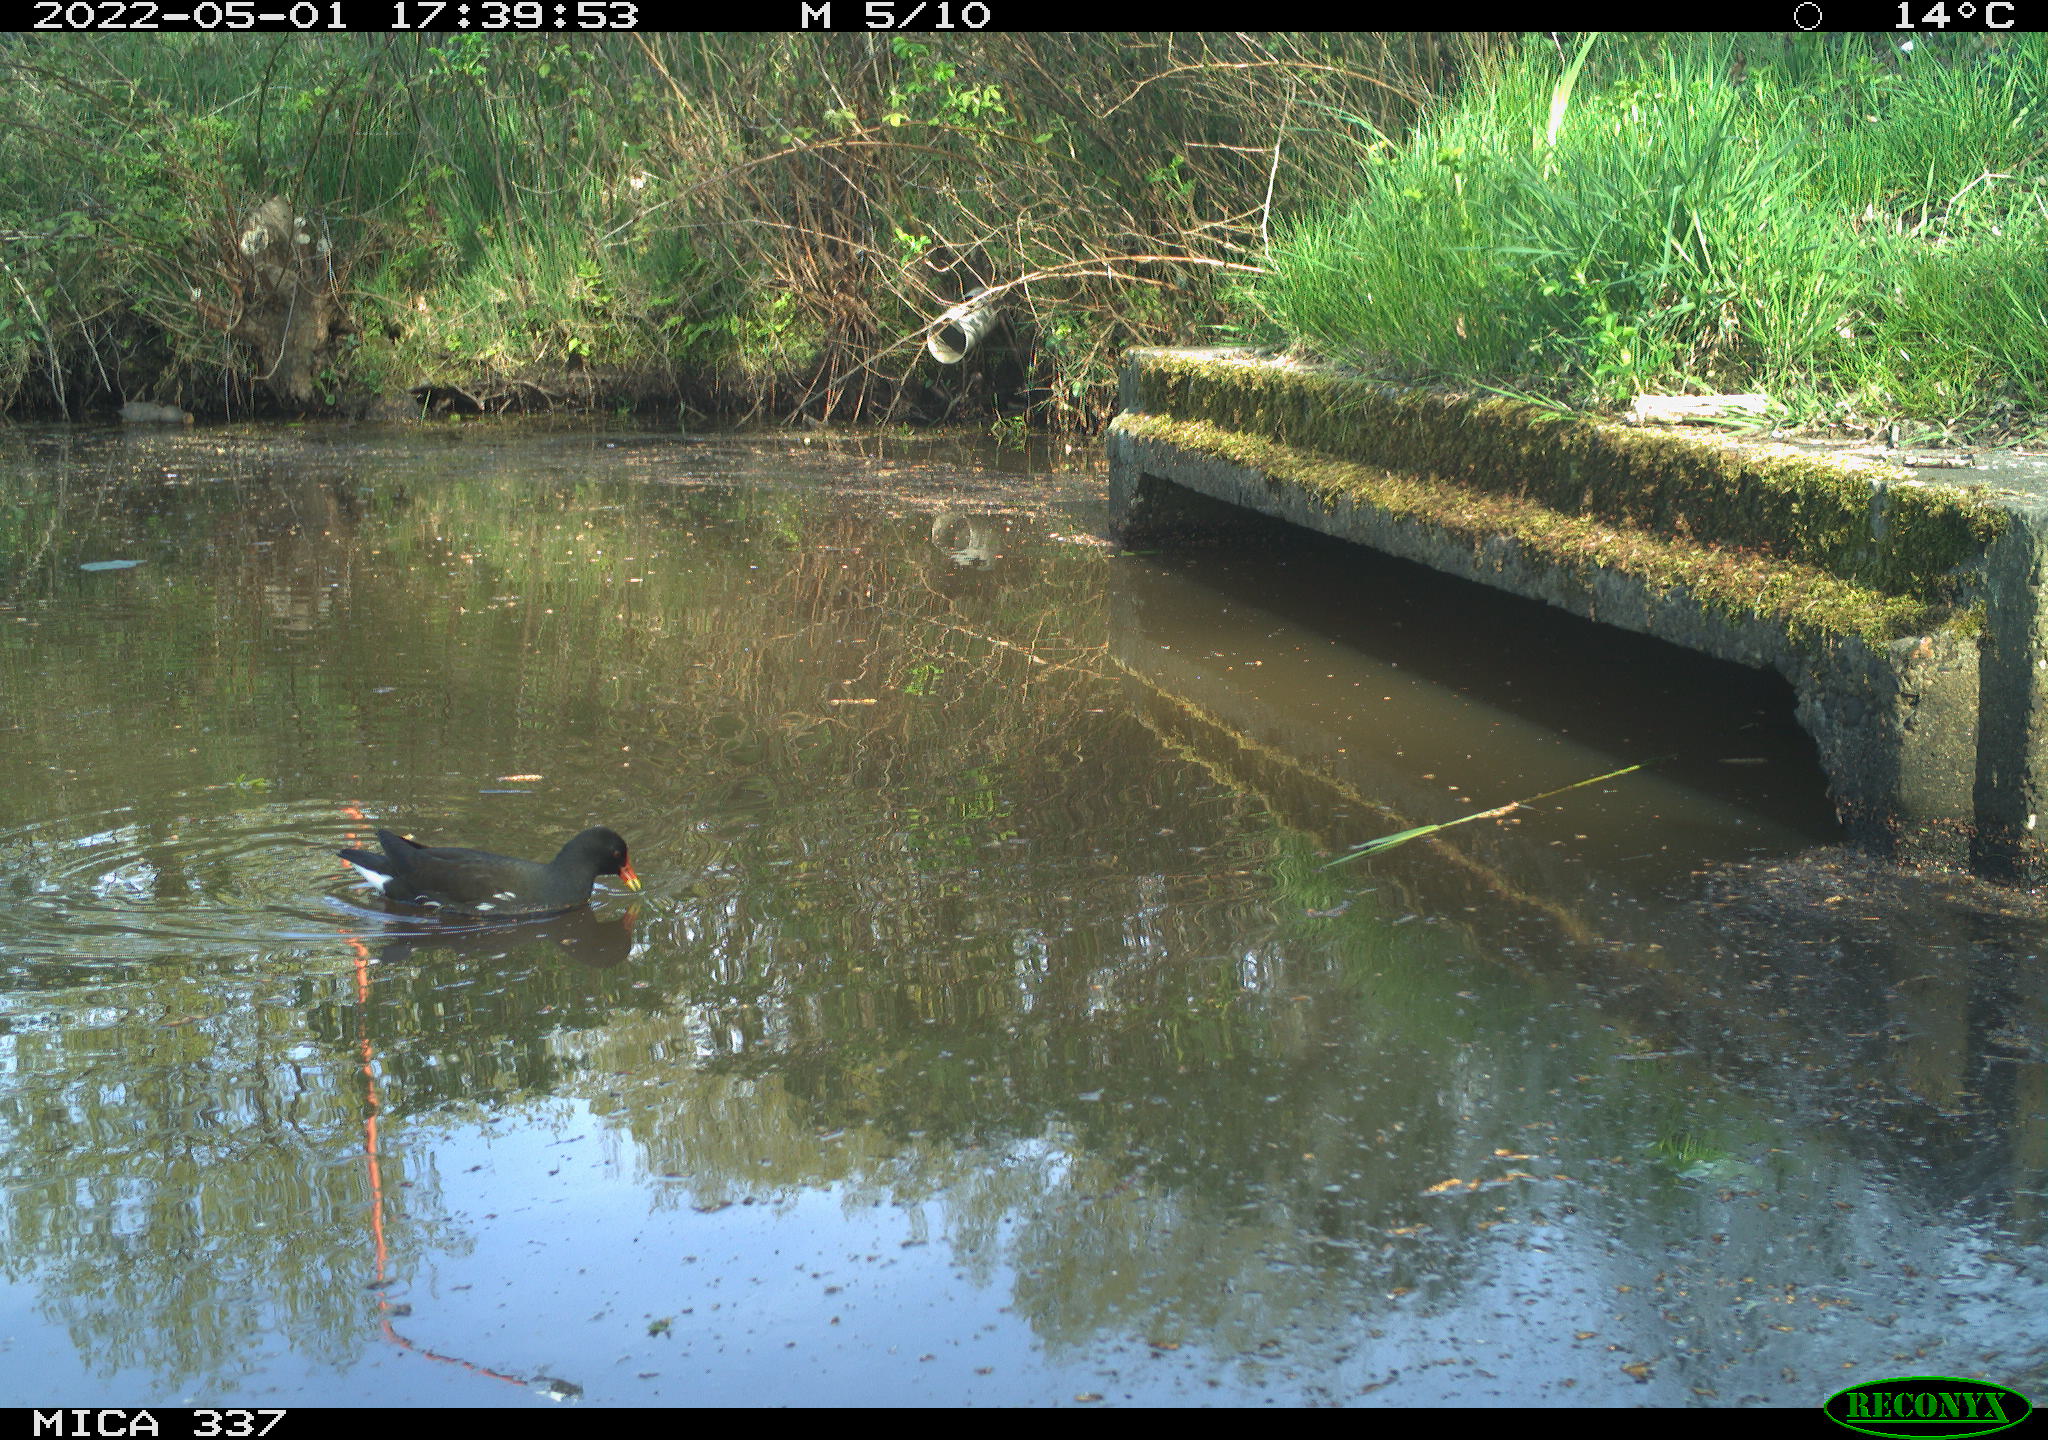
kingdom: Animalia
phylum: Chordata
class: Aves
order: Gruiformes
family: Rallidae
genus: Gallinula
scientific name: Gallinula chloropus
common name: Common moorhen
